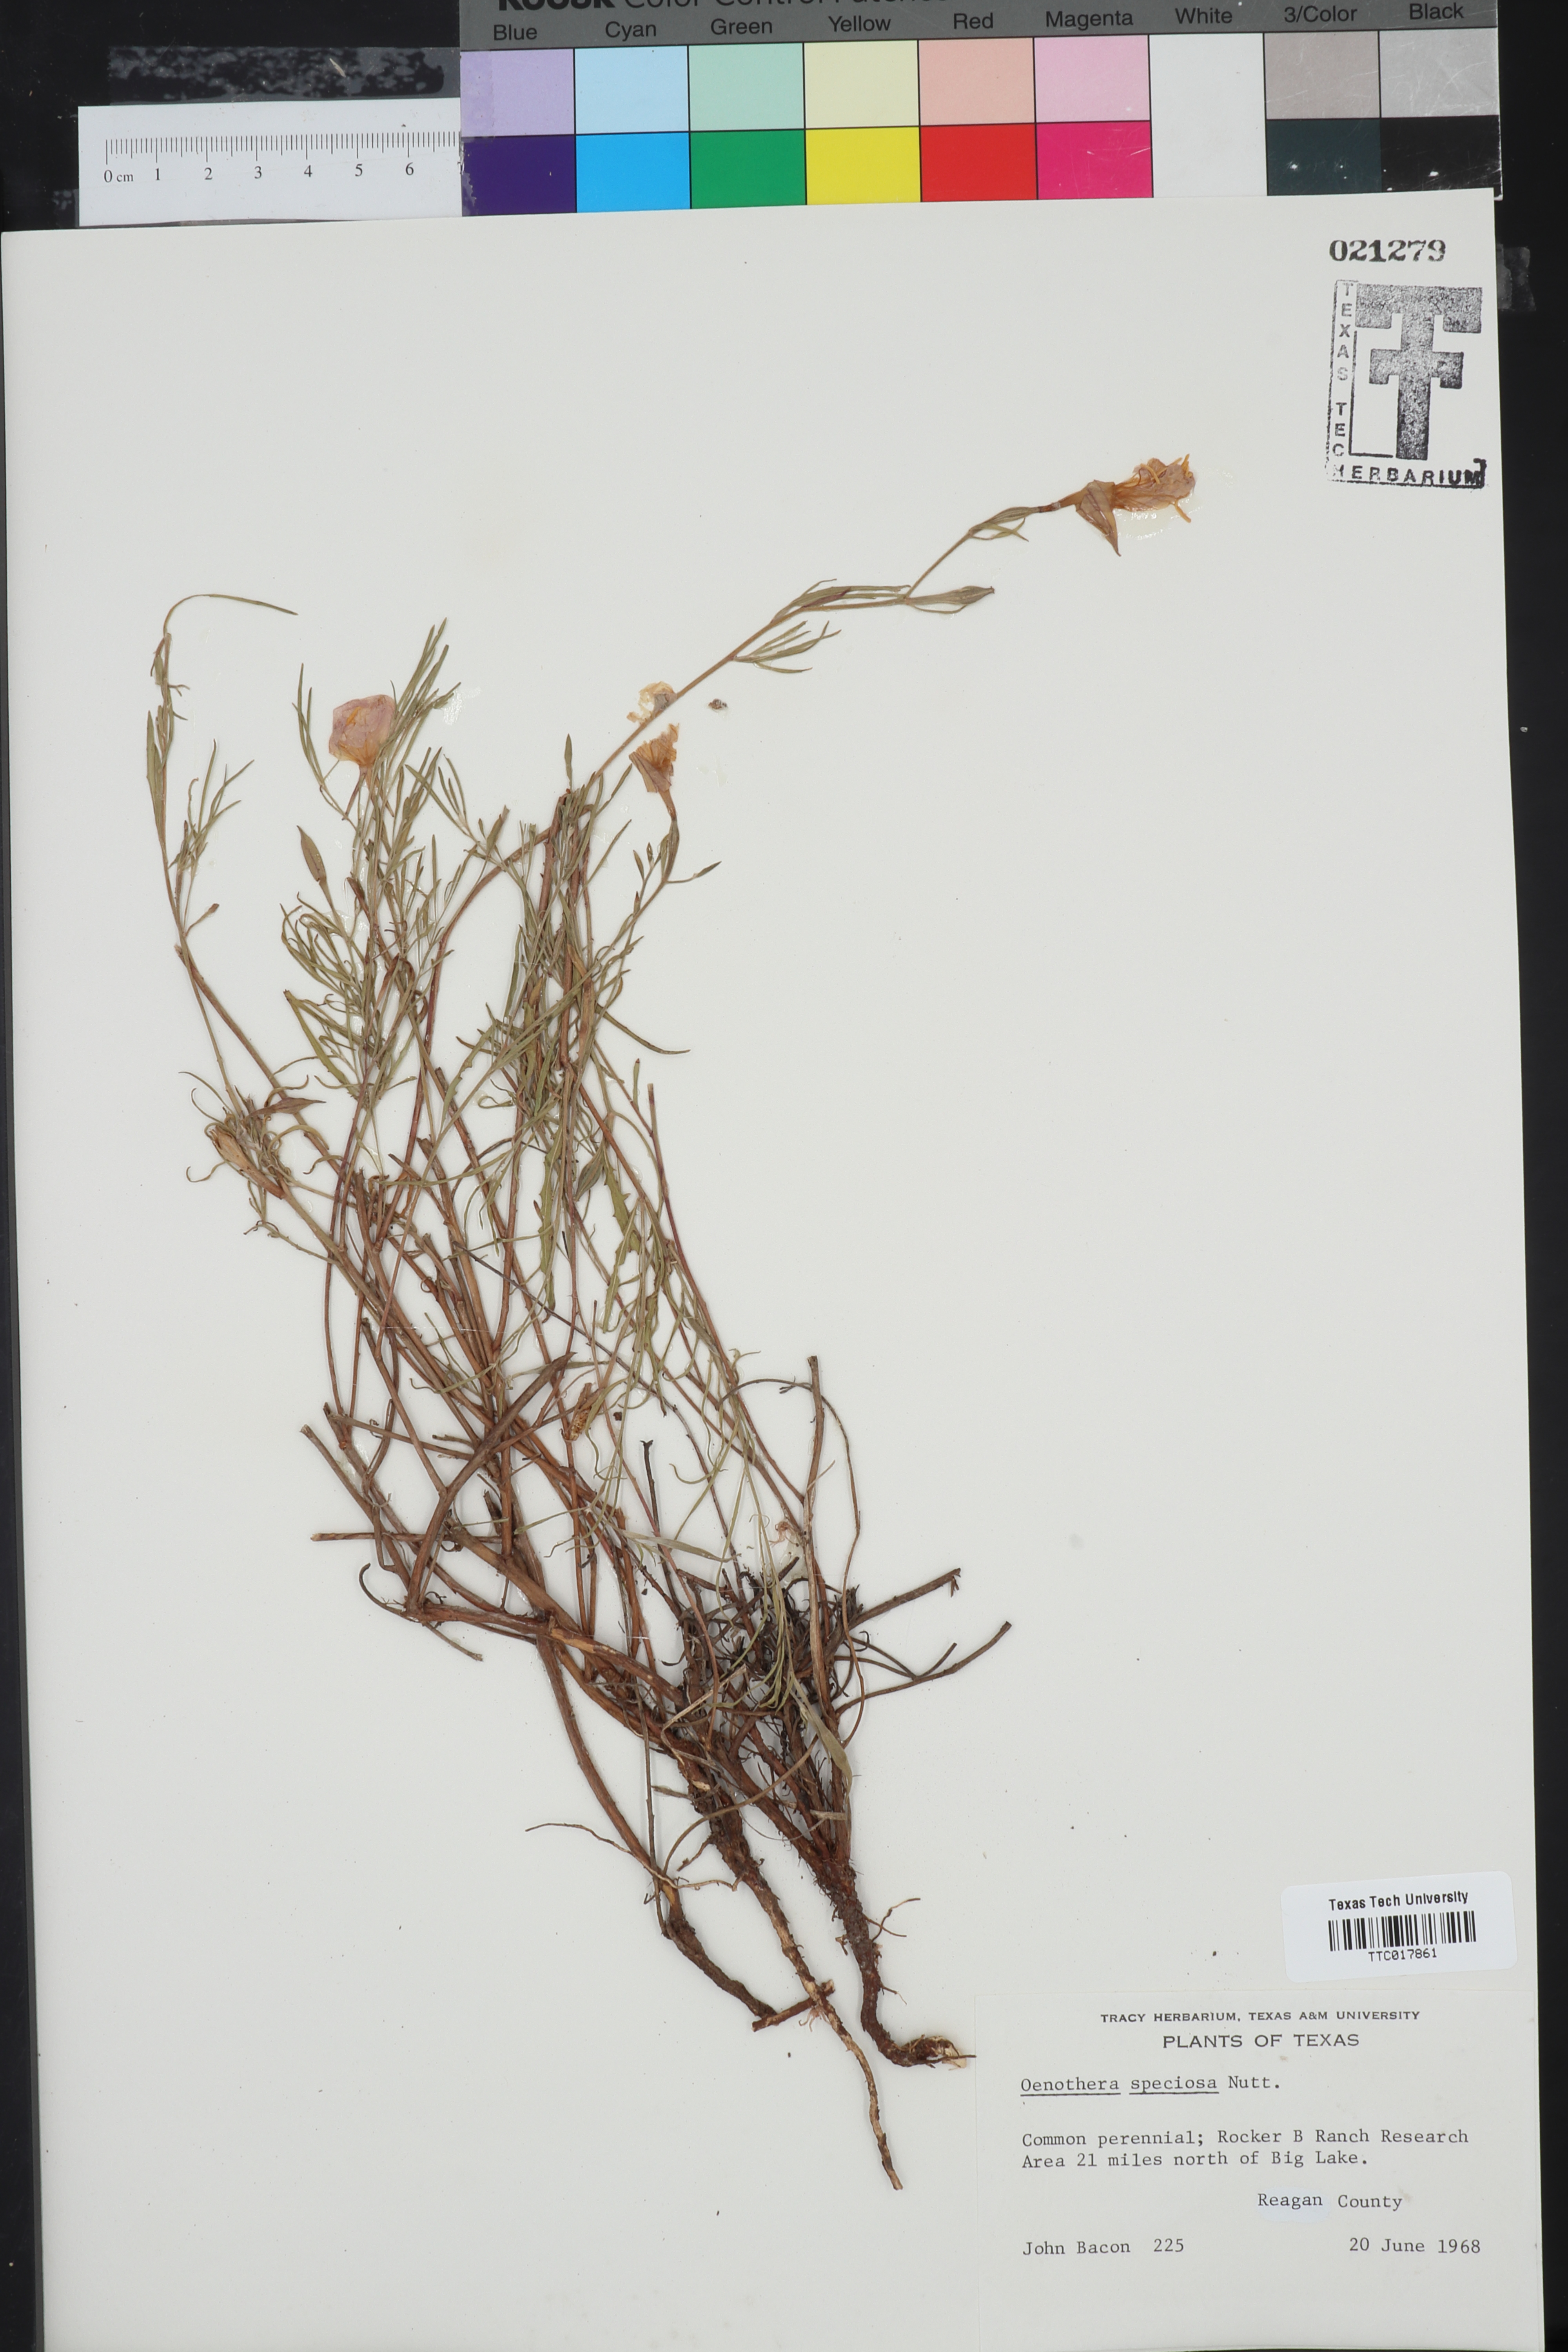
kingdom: Plantae
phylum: Tracheophyta
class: Magnoliopsida
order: Myrtales
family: Onagraceae
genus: Oenothera
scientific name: Oenothera speciosa
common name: White evening-primrose
